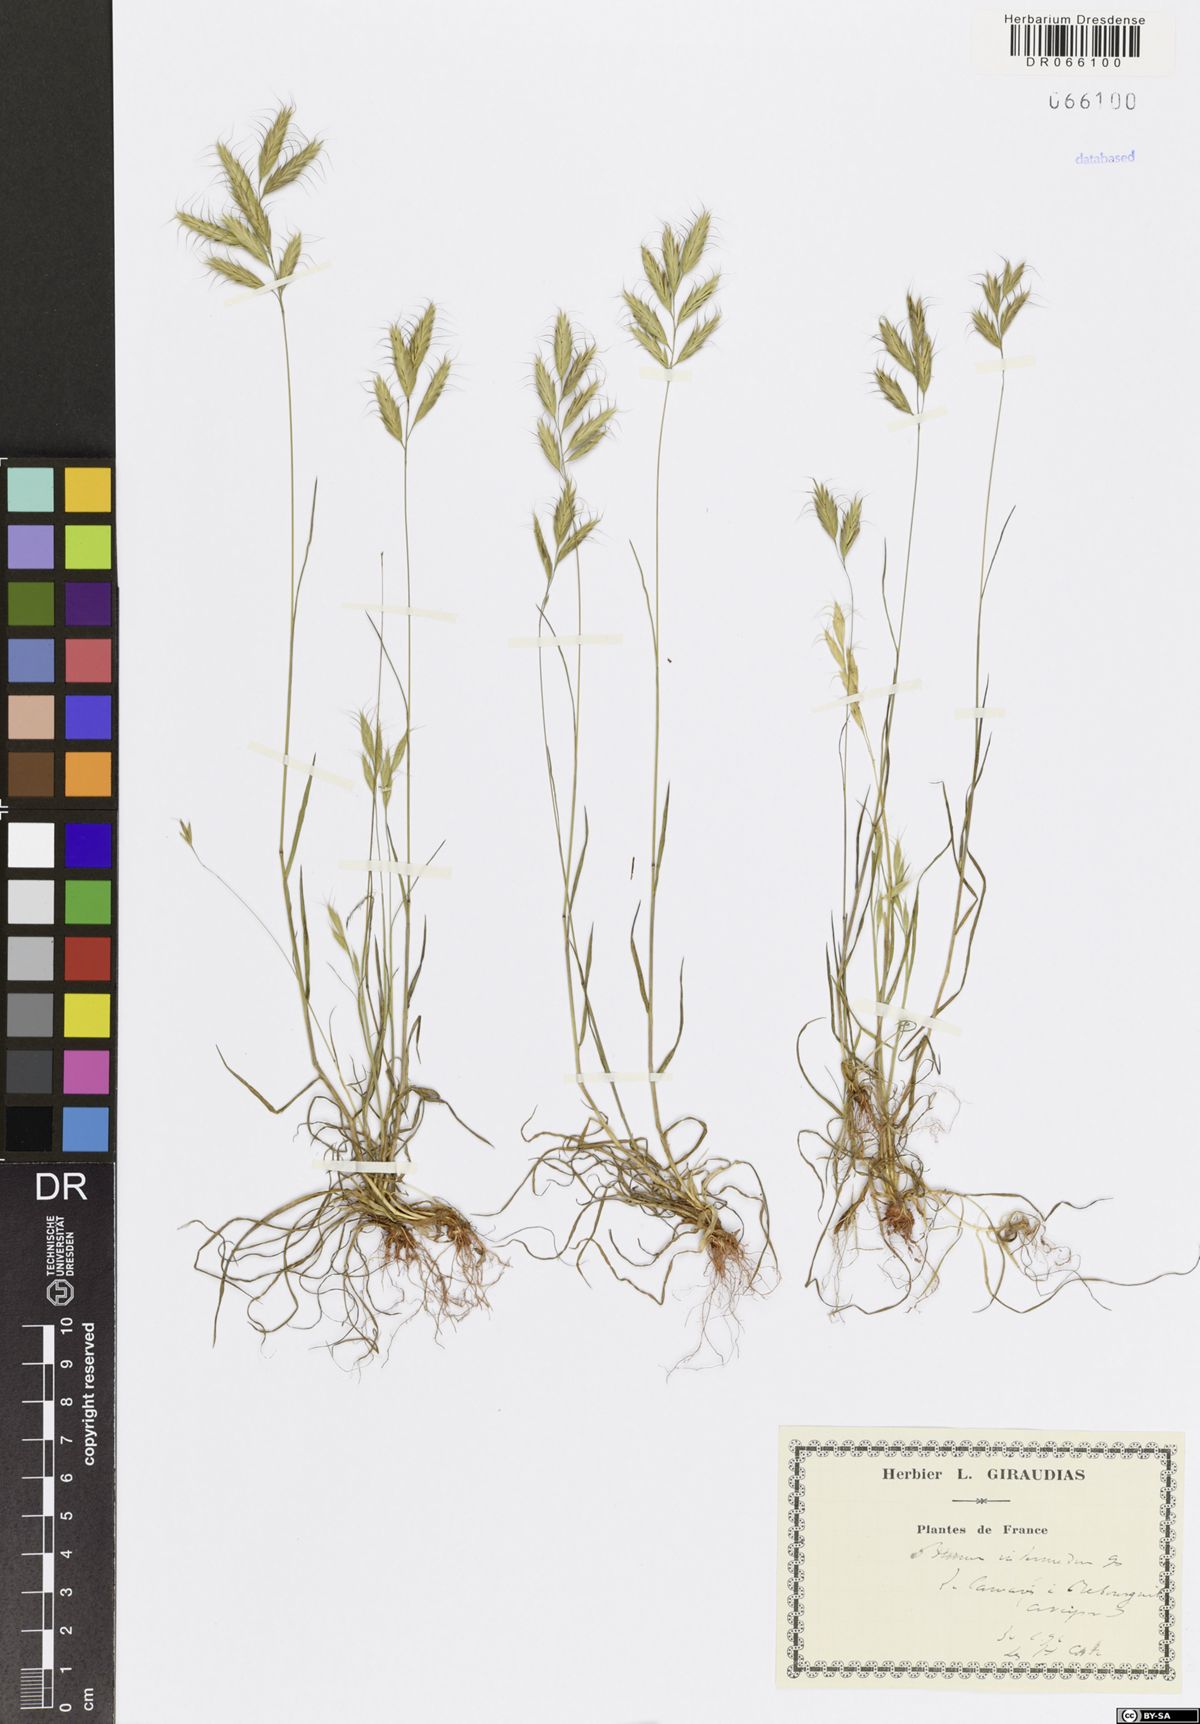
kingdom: Plantae
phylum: Tracheophyta
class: Liliopsida
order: Poales
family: Poaceae
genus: Bromus
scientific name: Bromus intermedius
